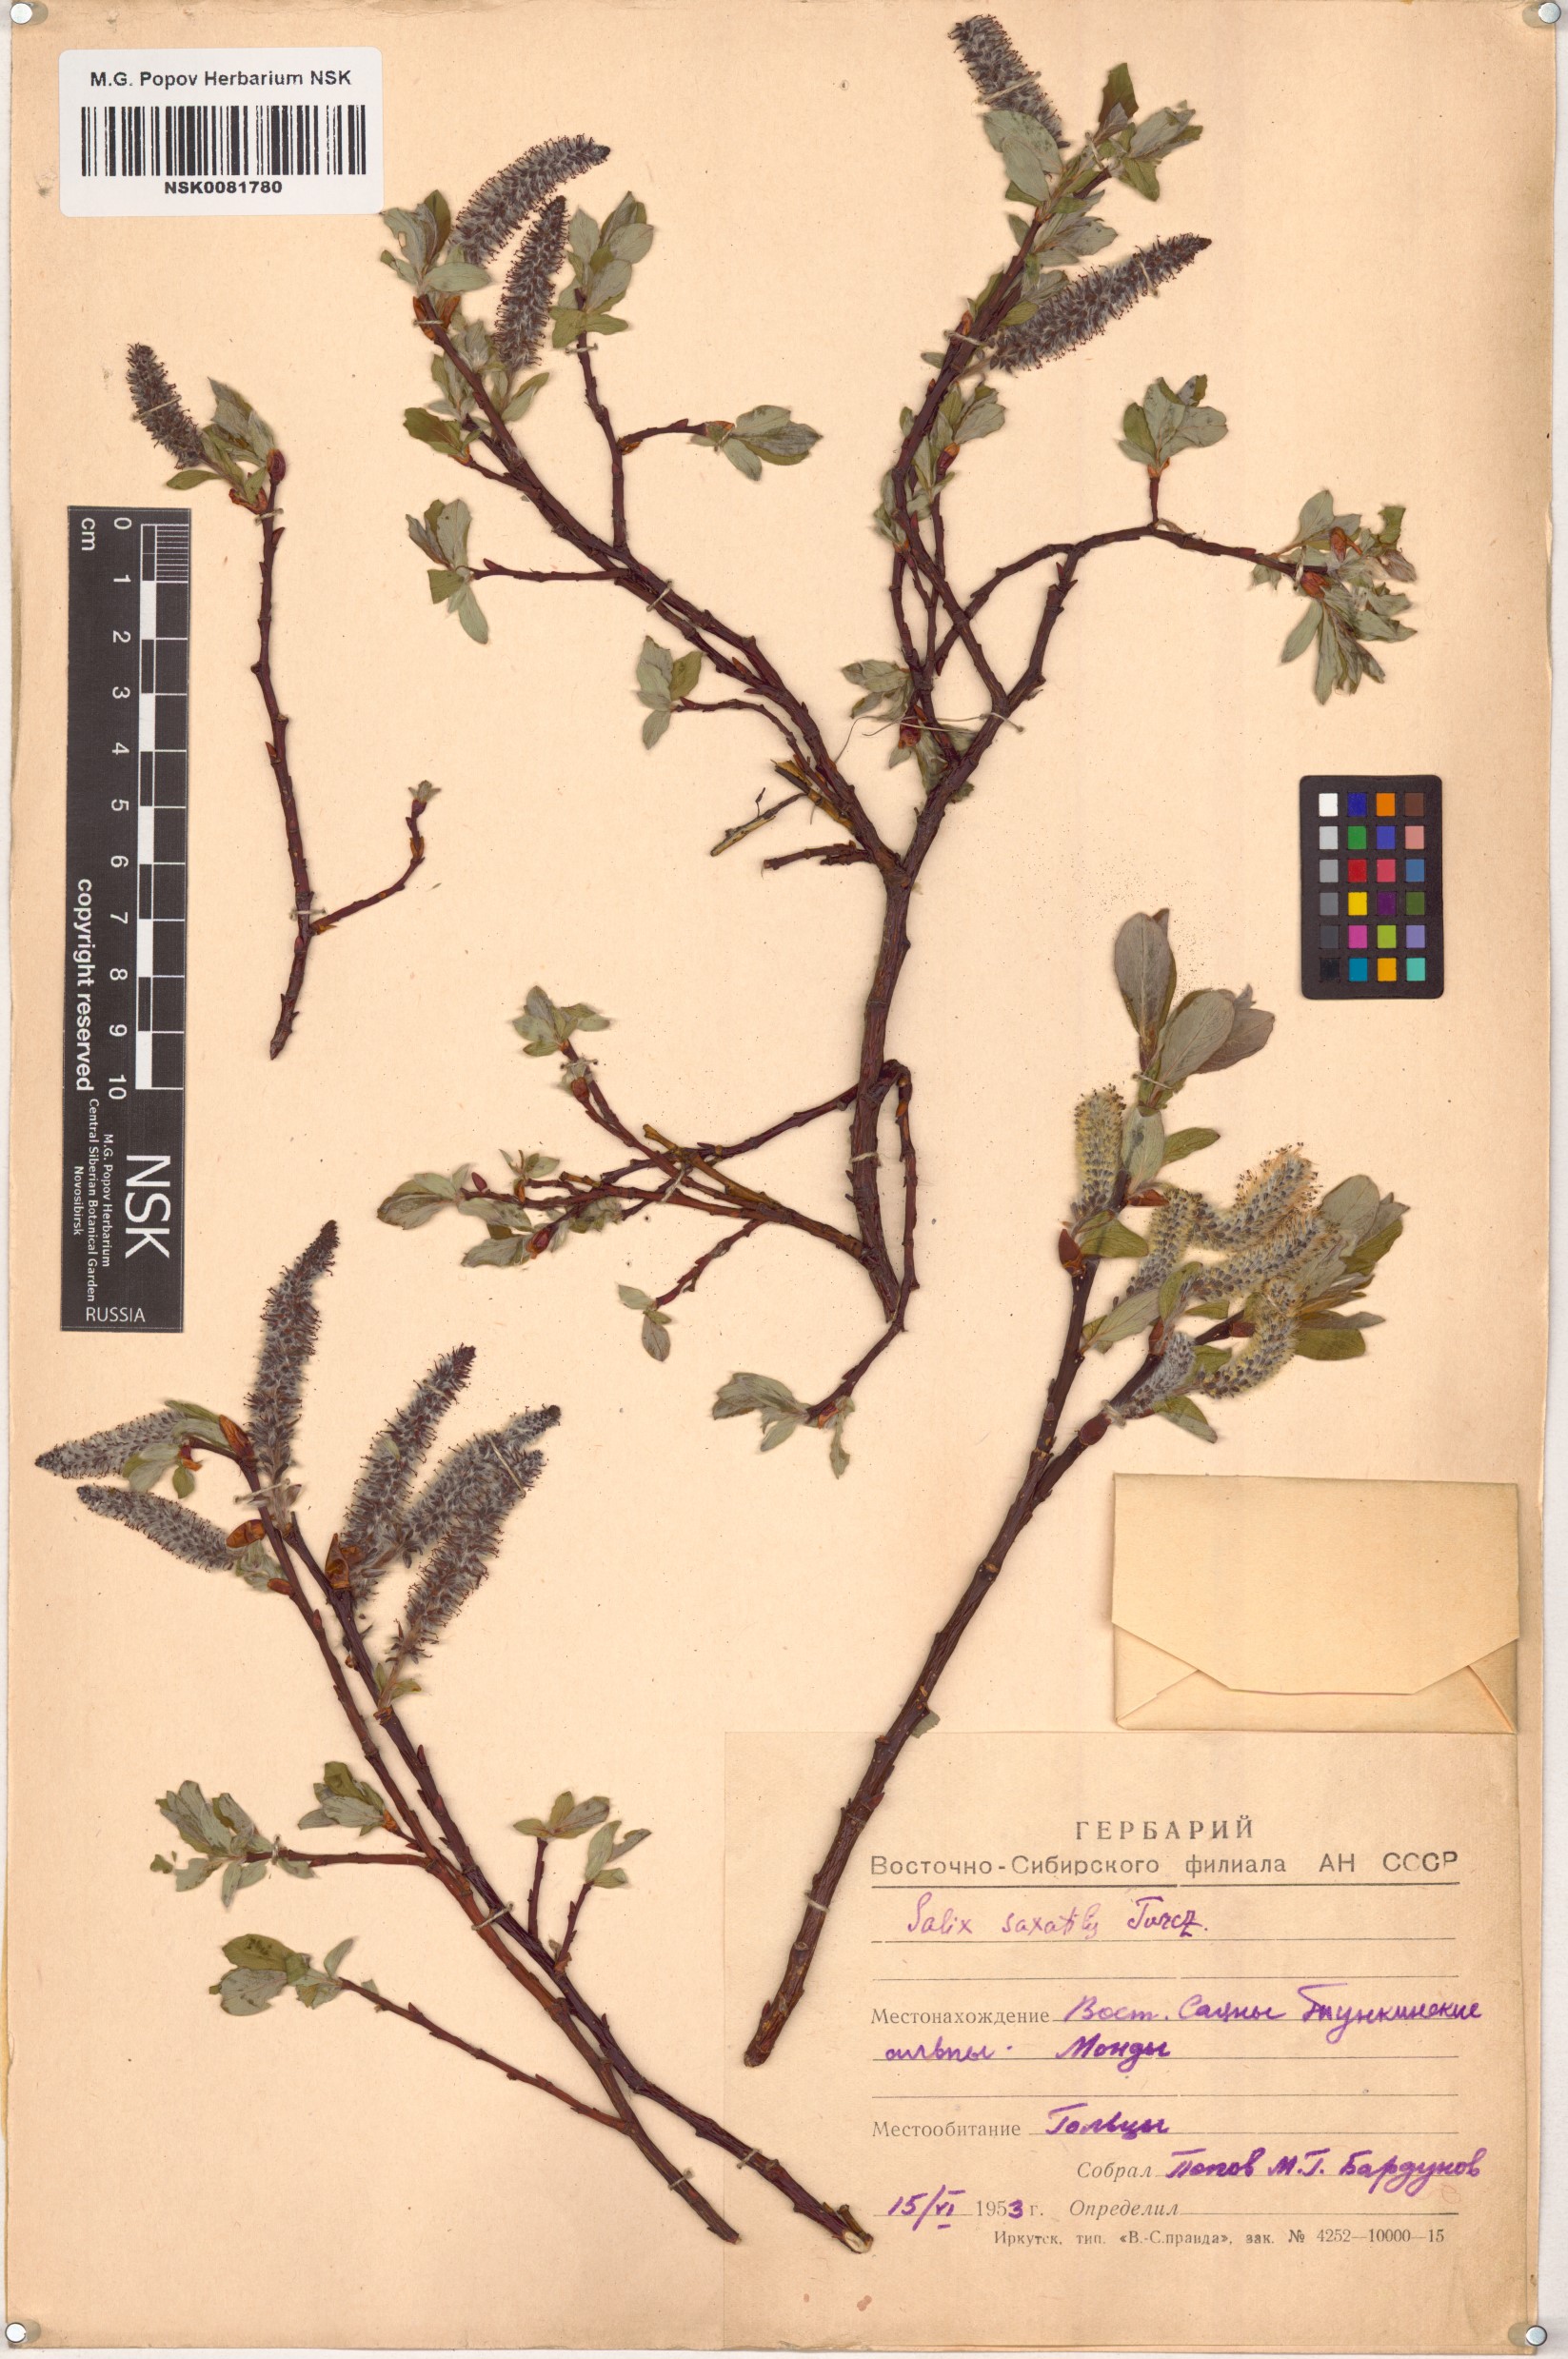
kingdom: Plantae
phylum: Tracheophyta
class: Magnoliopsida
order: Malpighiales
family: Salicaceae
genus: Salix
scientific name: Salix saxatilis
